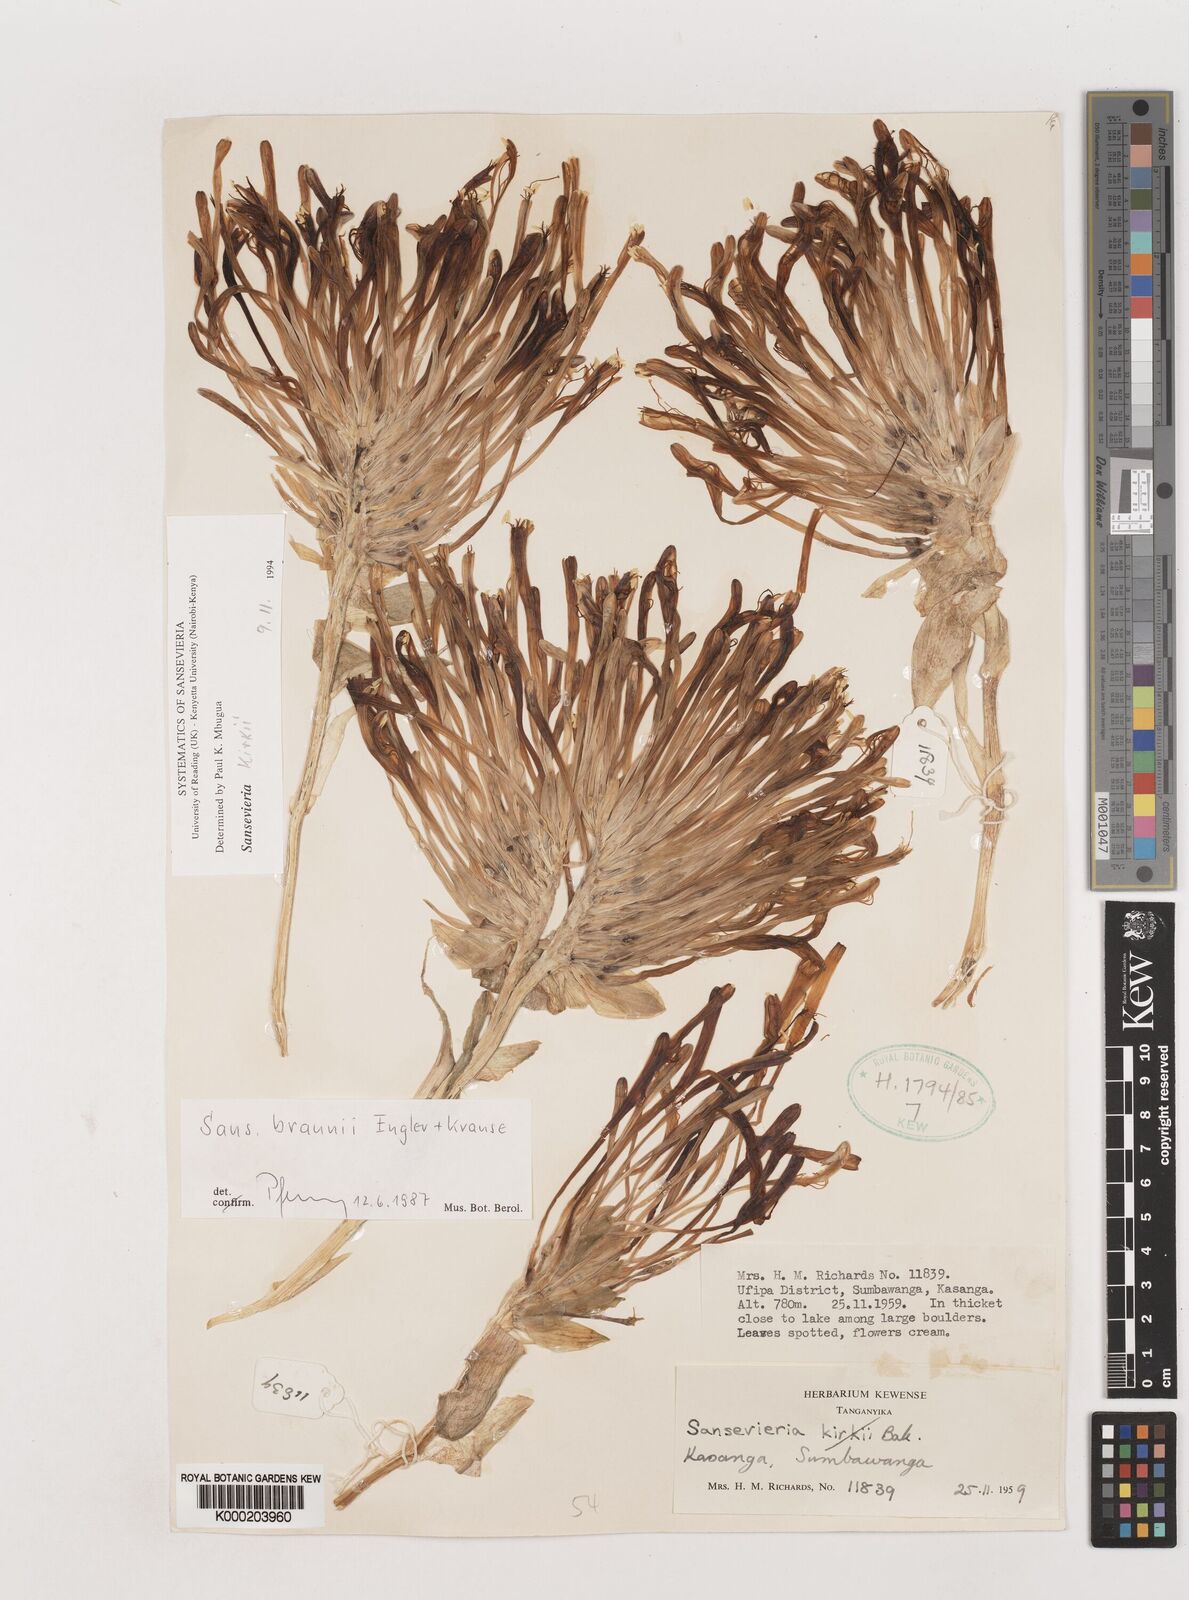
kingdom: Plantae
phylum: Tracheophyta
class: Liliopsida
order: Asparagales
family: Asparagaceae
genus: Dracaena
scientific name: Dracaena testudinea
